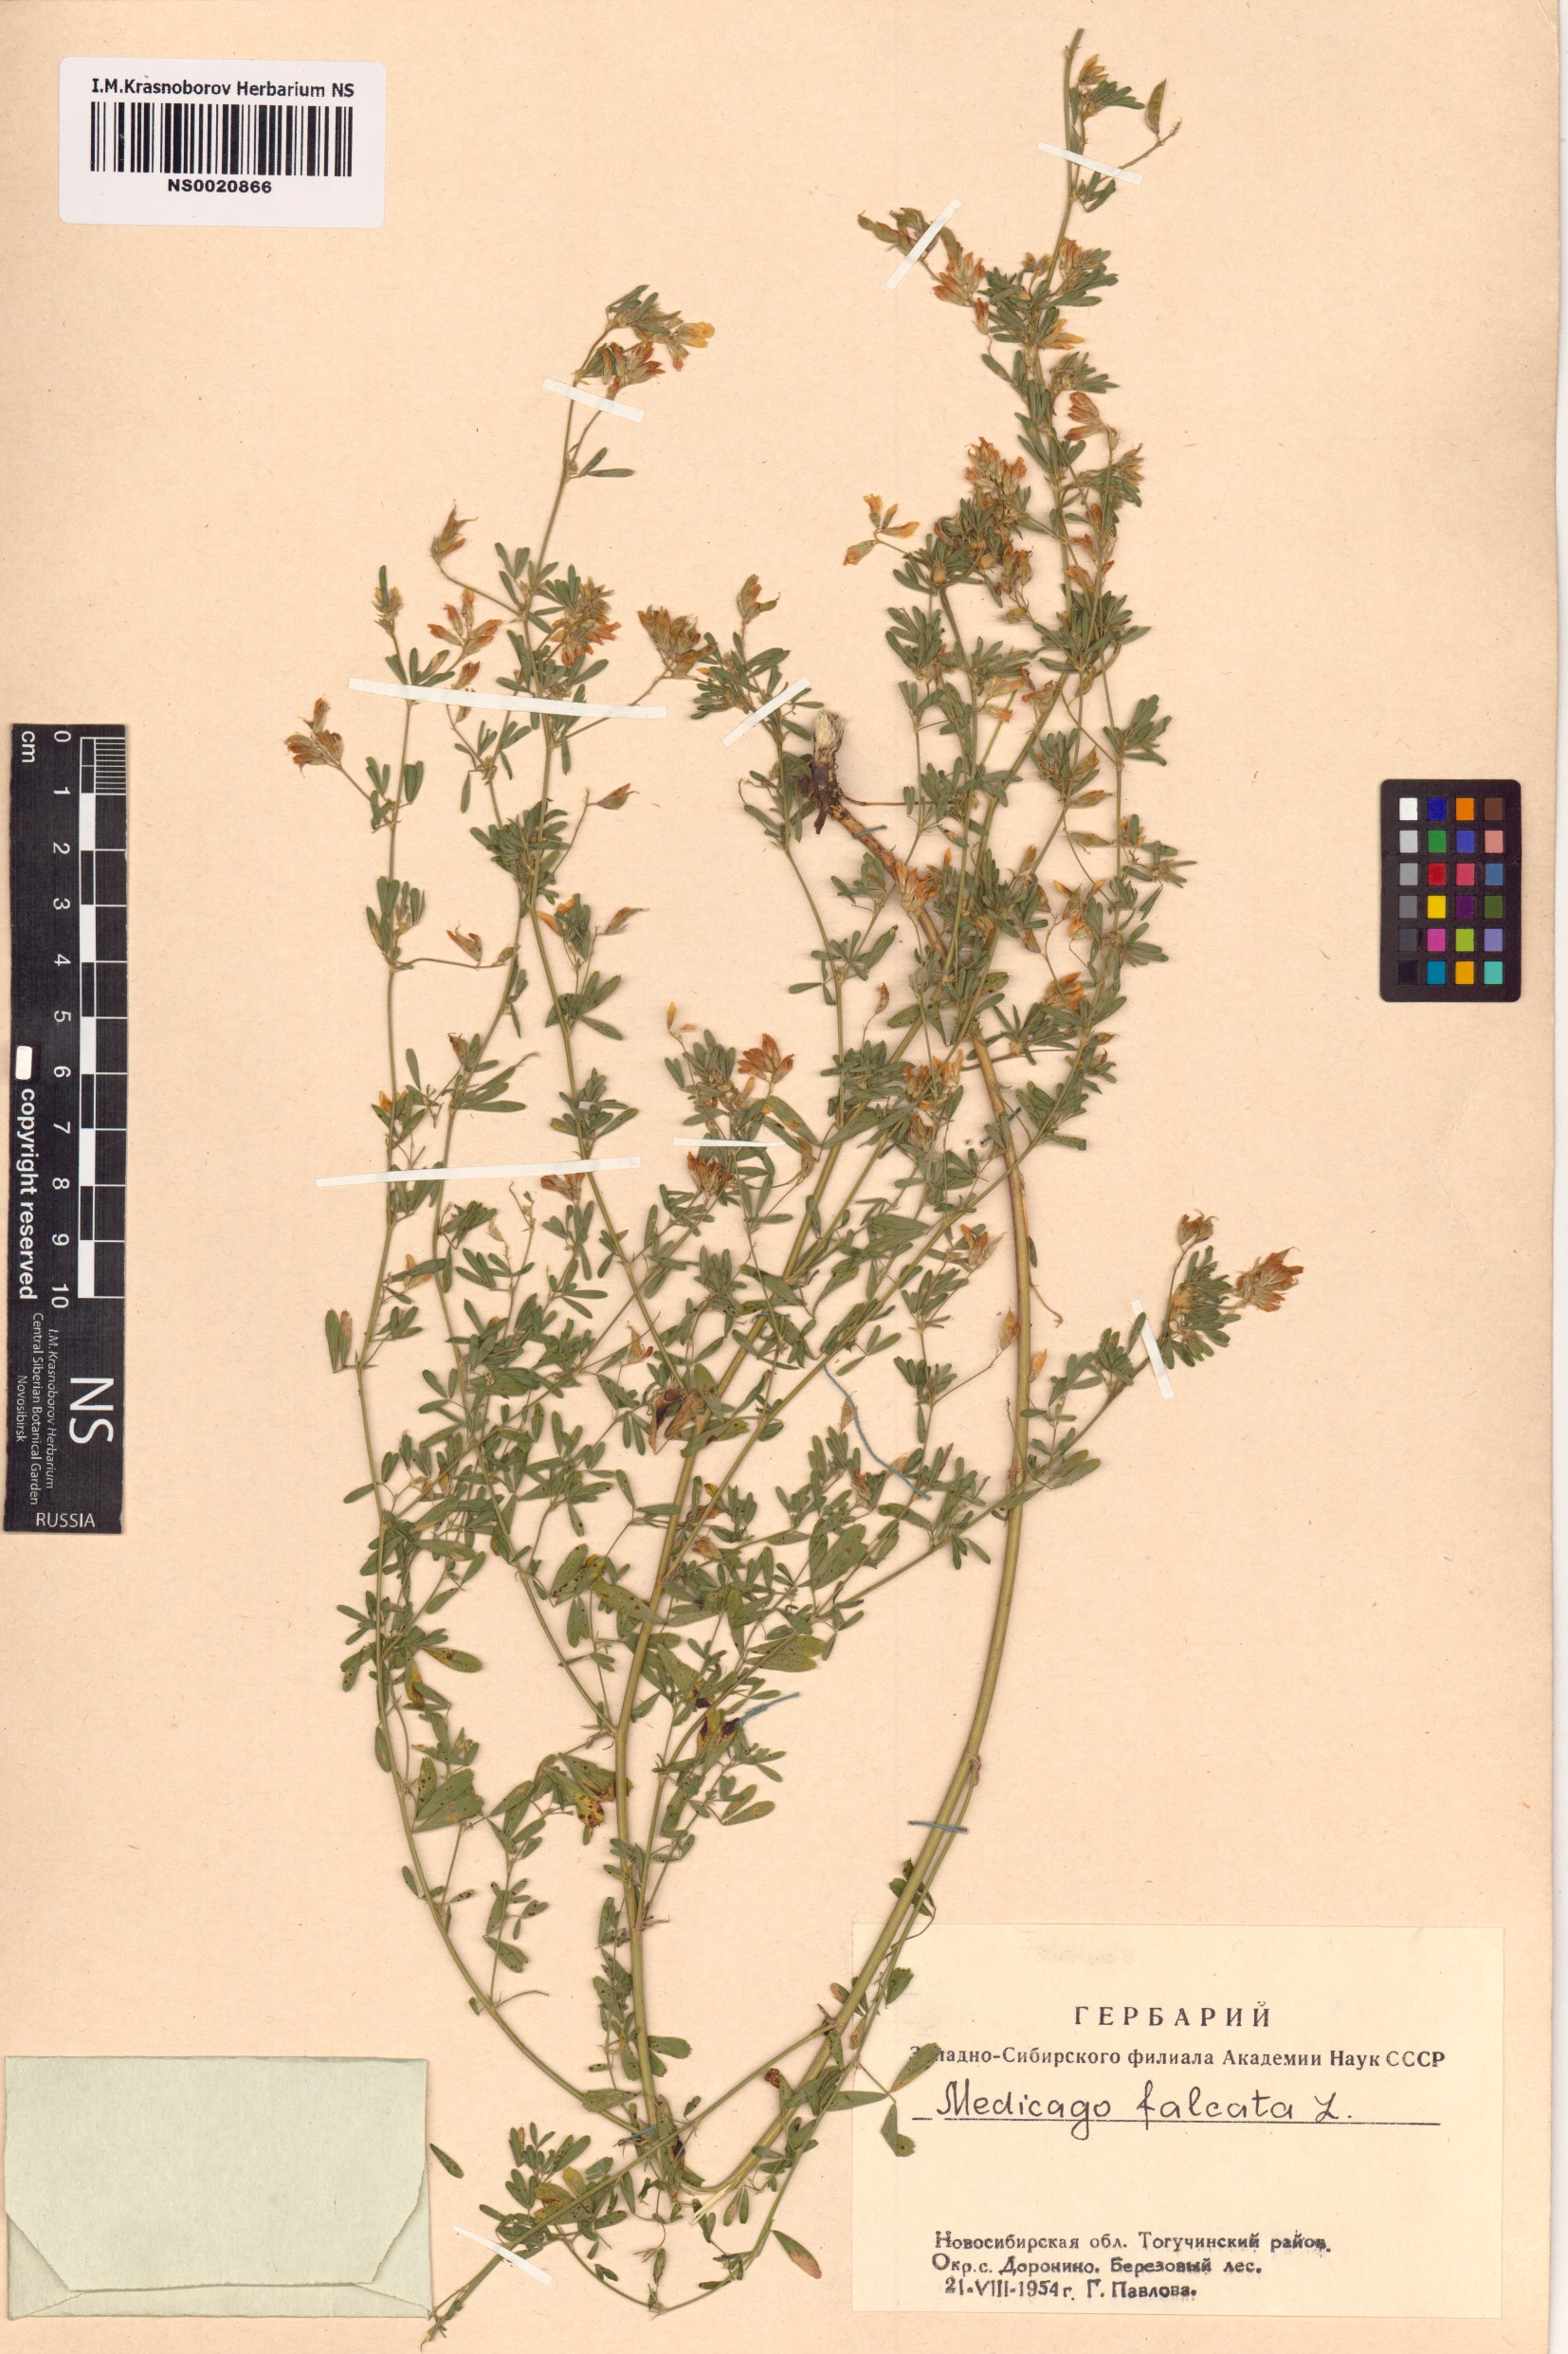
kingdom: Plantae
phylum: Tracheophyta
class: Magnoliopsida
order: Fabales
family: Fabaceae
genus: Medicago
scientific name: Medicago falcata
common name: Sickle medick
